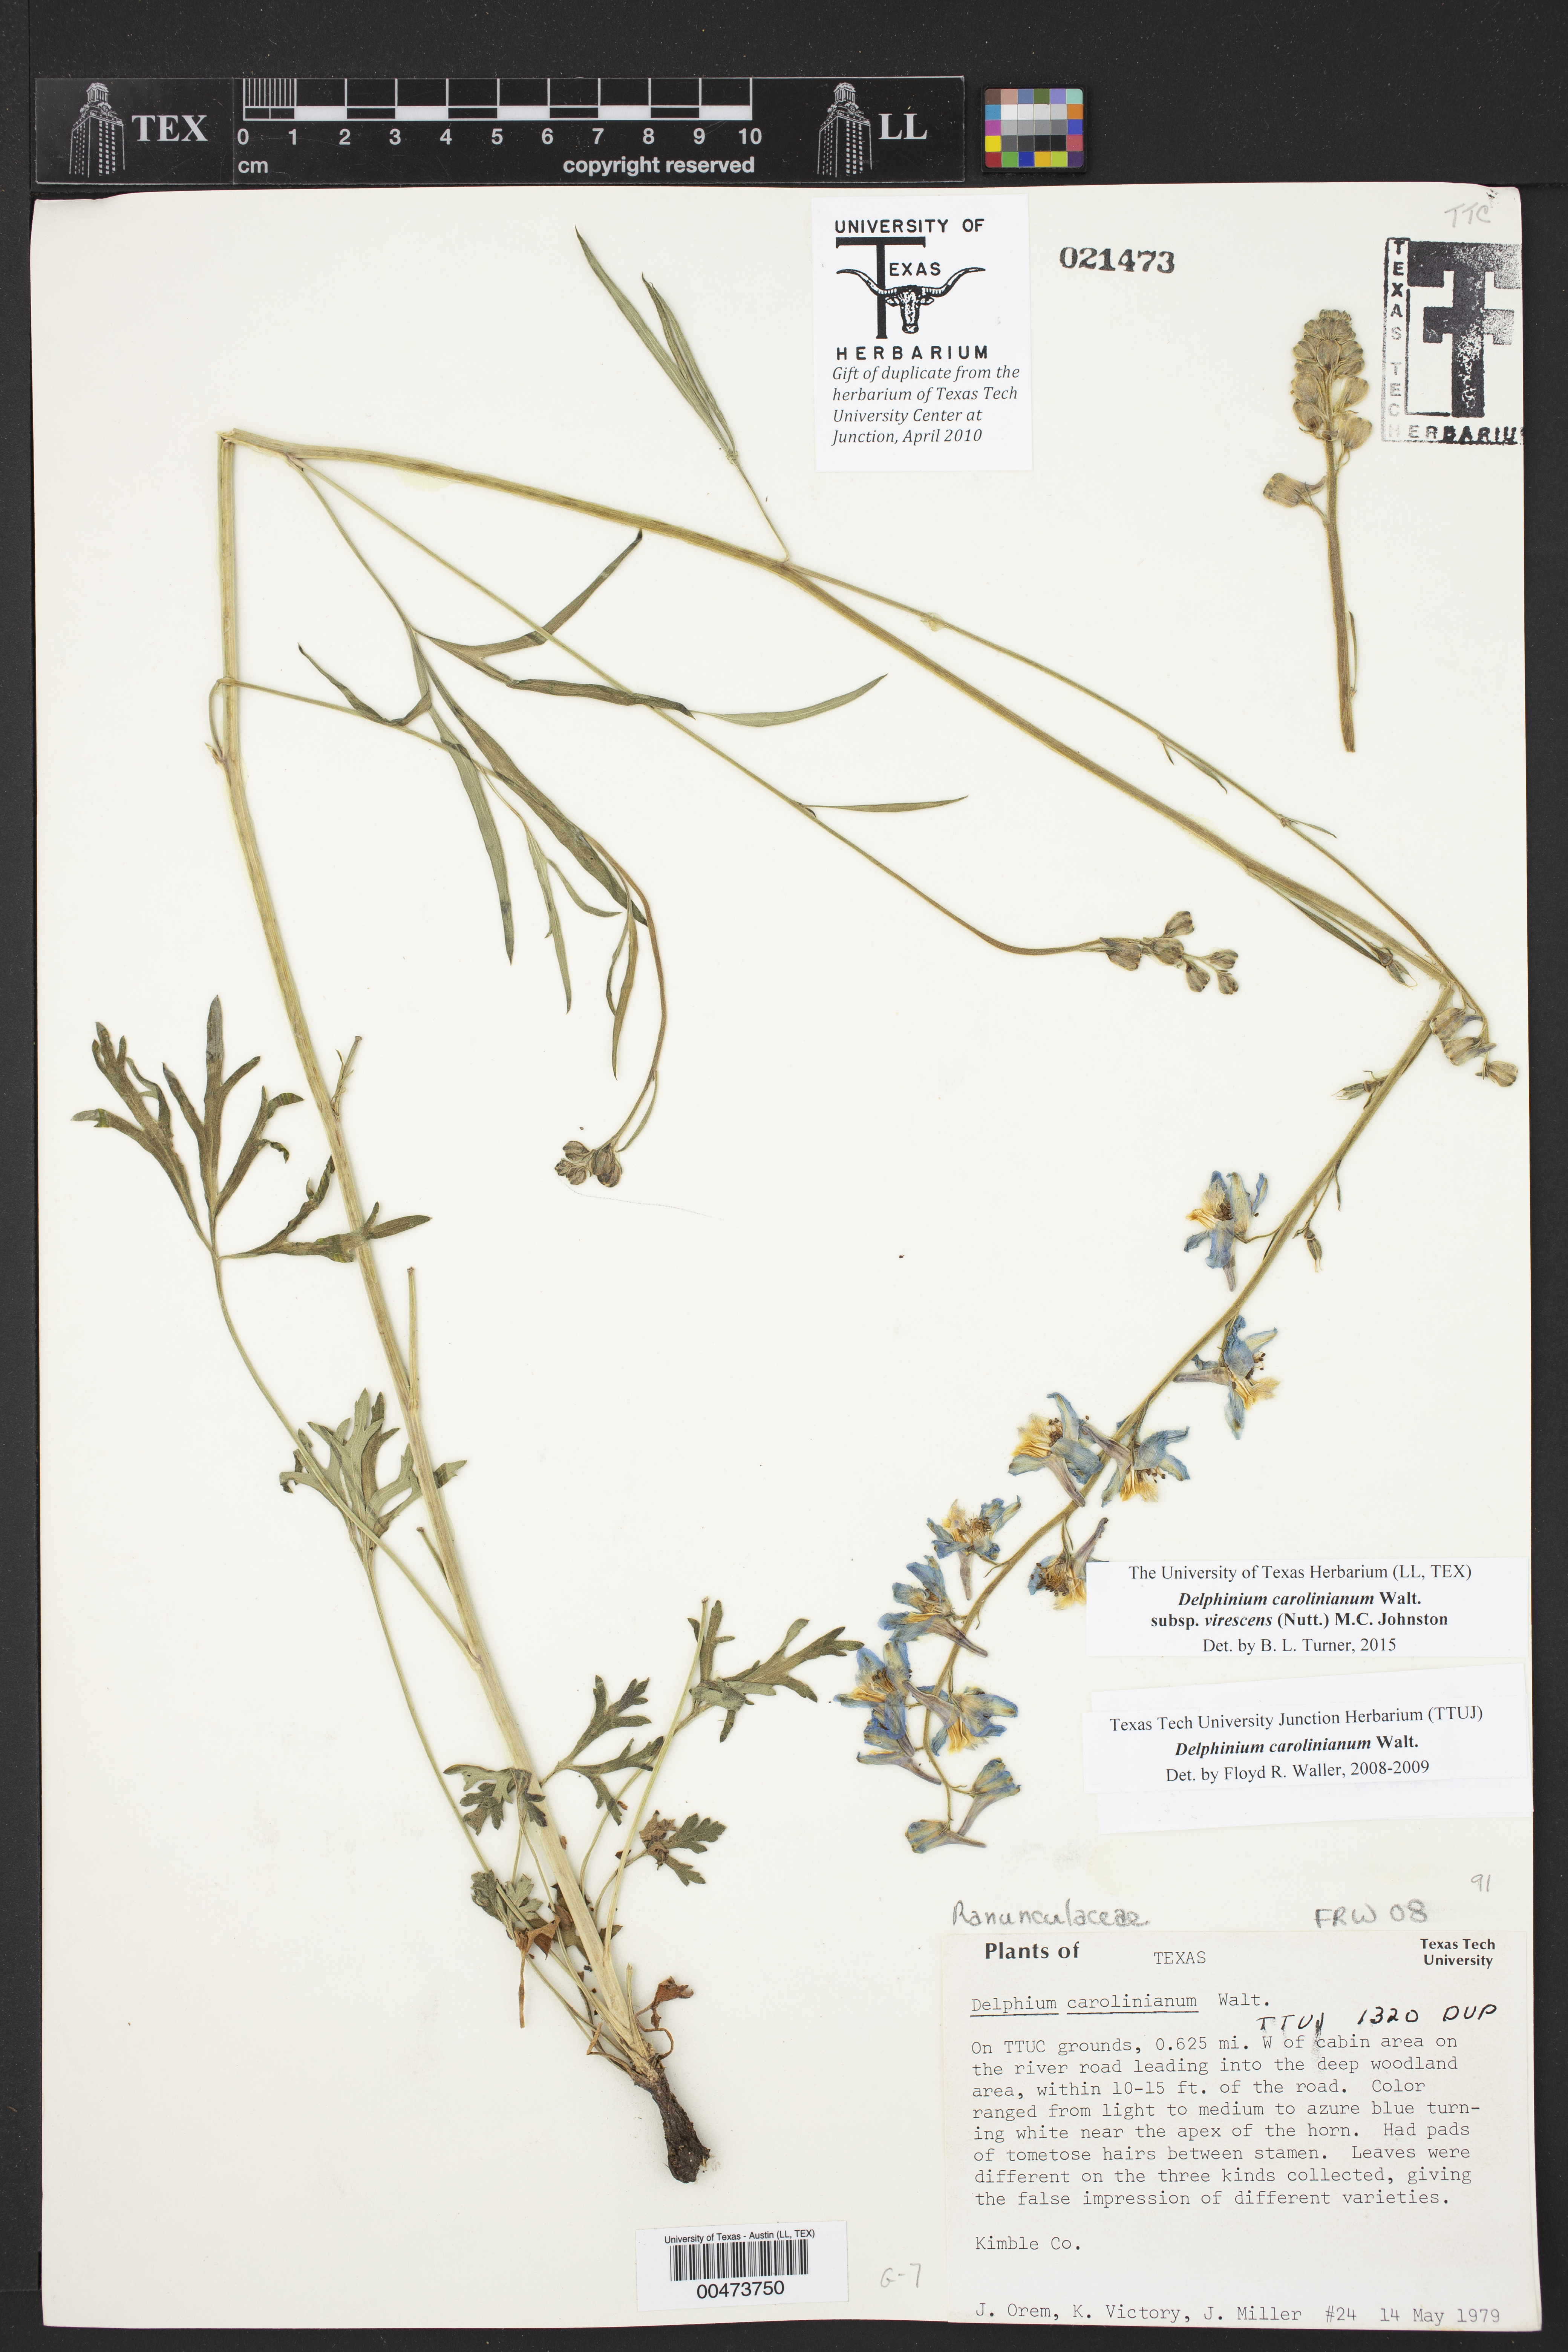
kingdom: Plantae
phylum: Tracheophyta
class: Magnoliopsida
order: Ranunculales
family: Ranunculaceae
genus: Delphinium
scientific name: Delphinium carolinianum
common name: Carolina larkspur
